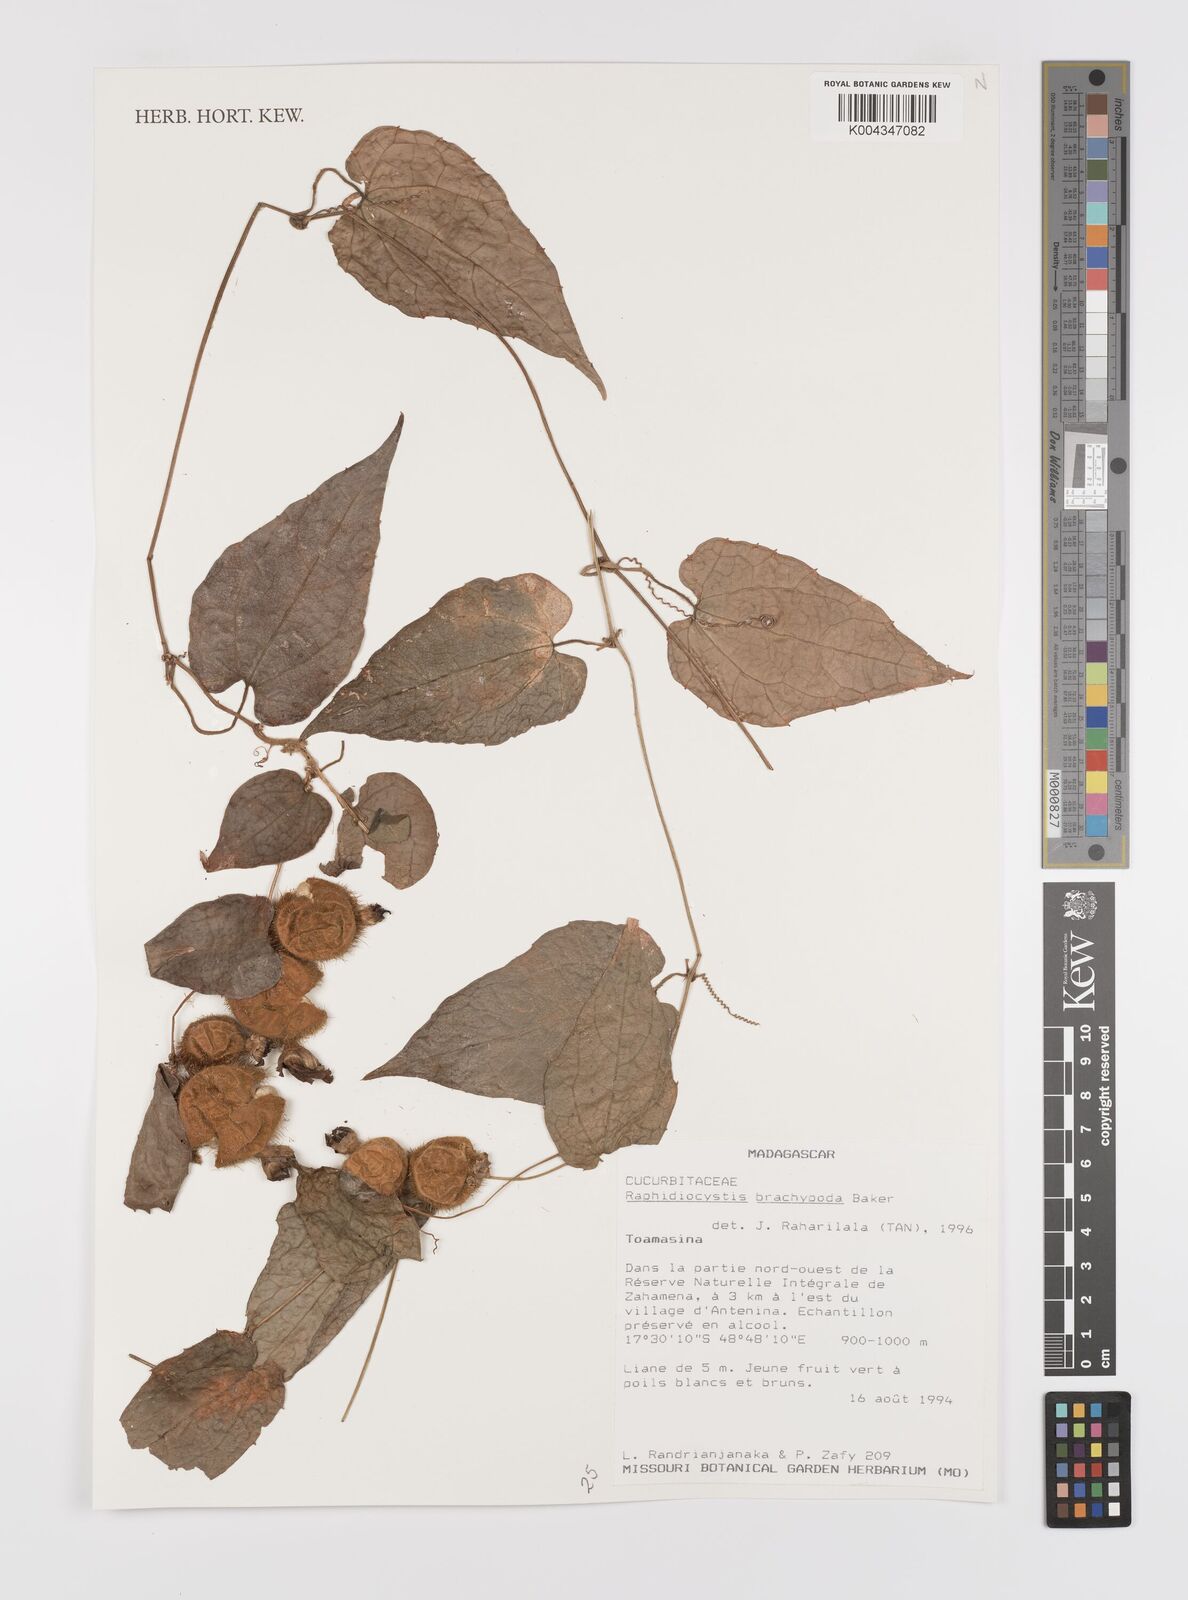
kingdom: Plantae
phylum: Tracheophyta
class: Magnoliopsida
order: Cucurbitales
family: Cucurbitaceae
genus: Raphidiocystis
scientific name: Raphidiocystis brachypoda
